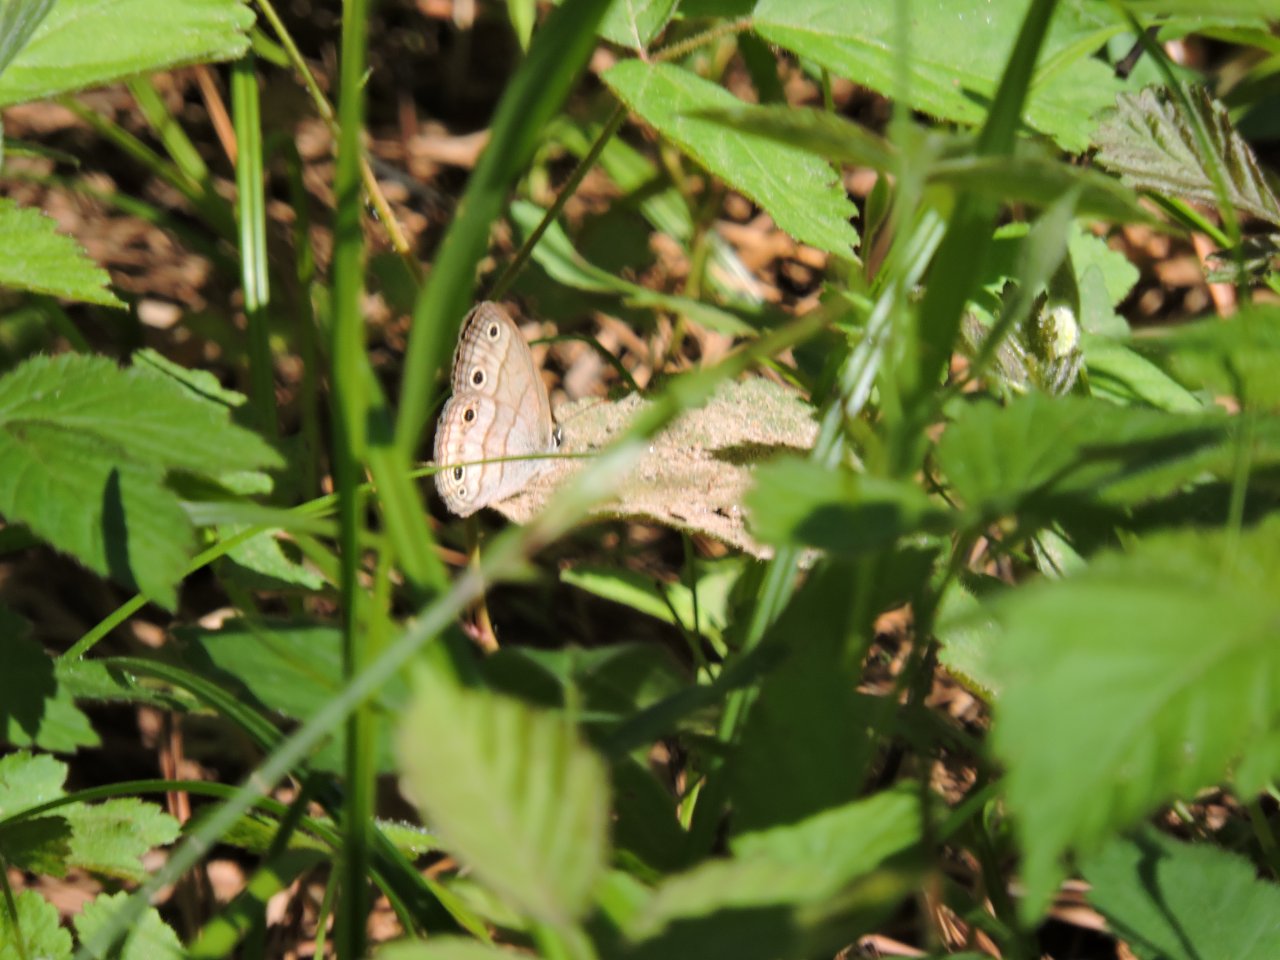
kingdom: Animalia
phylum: Arthropoda
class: Insecta
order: Lepidoptera
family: Nymphalidae
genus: Euptychia
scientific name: Euptychia cymela
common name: Little Wood Satyr
